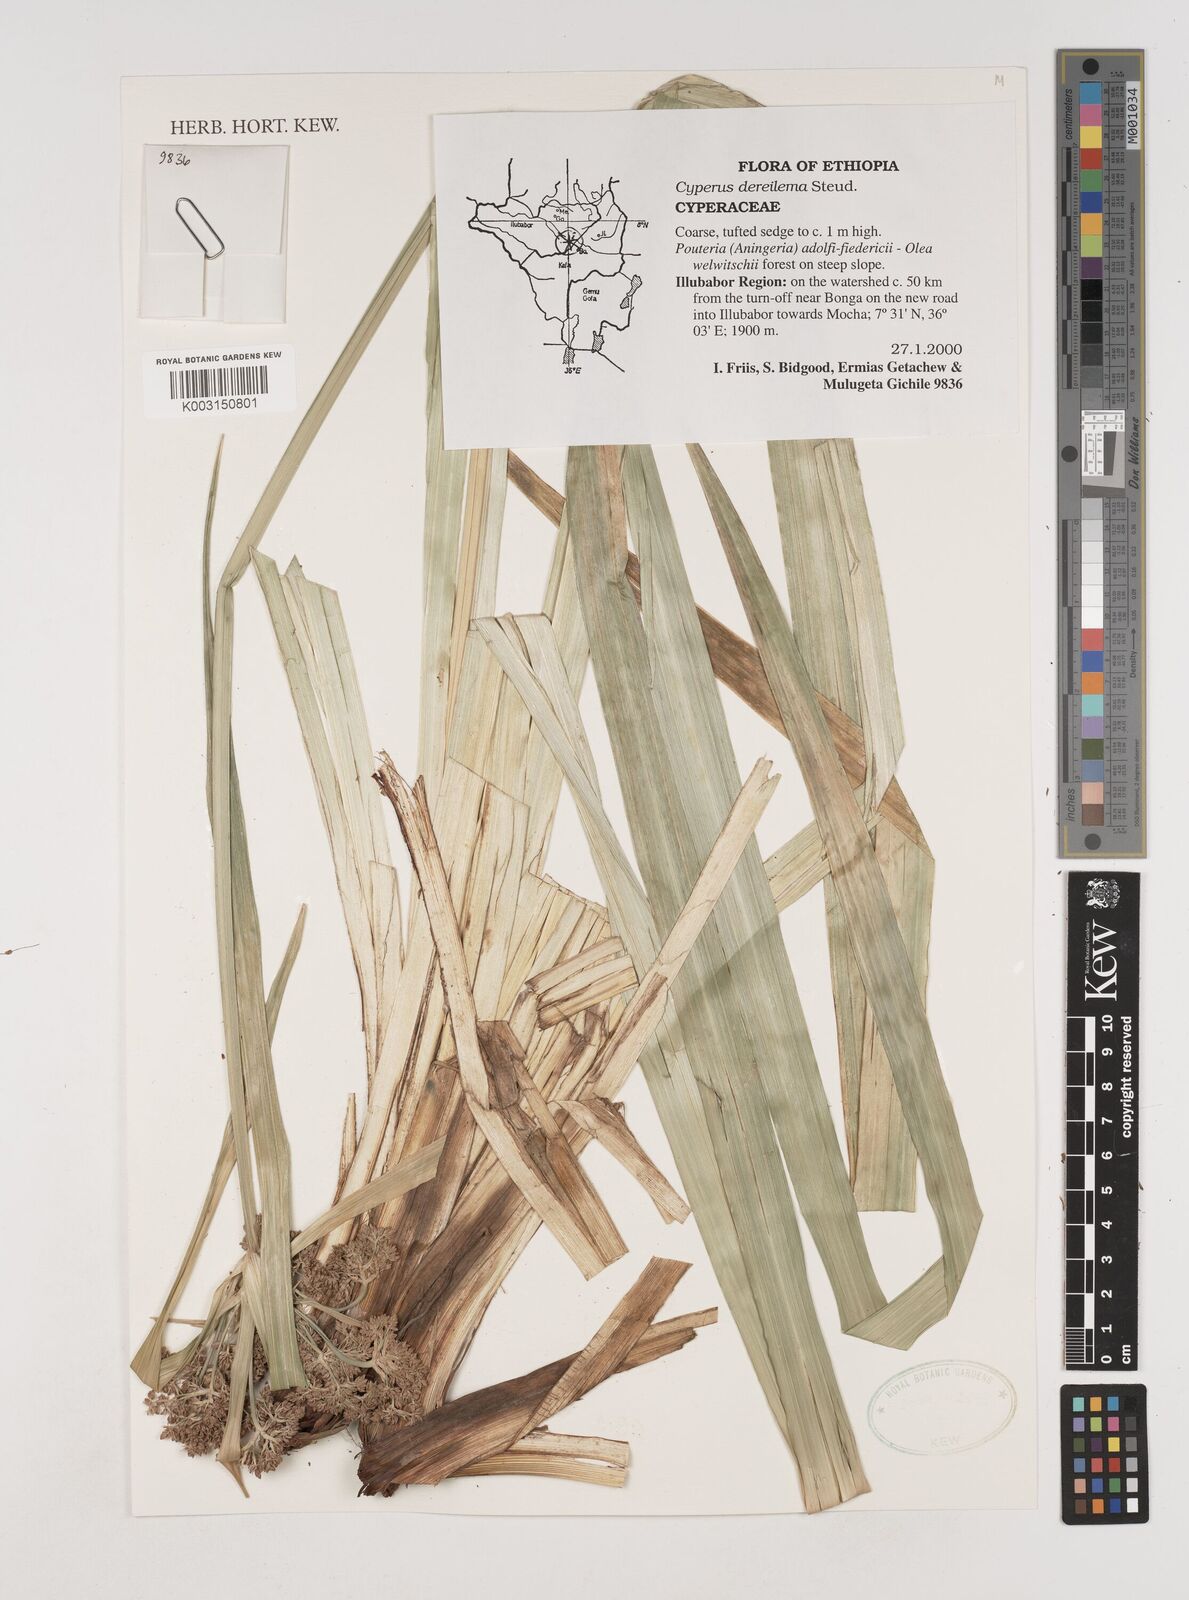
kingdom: Plantae
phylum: Tracheophyta
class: Liliopsida
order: Poales
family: Cyperaceae
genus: Cyperus
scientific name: Cyperus derreilema
